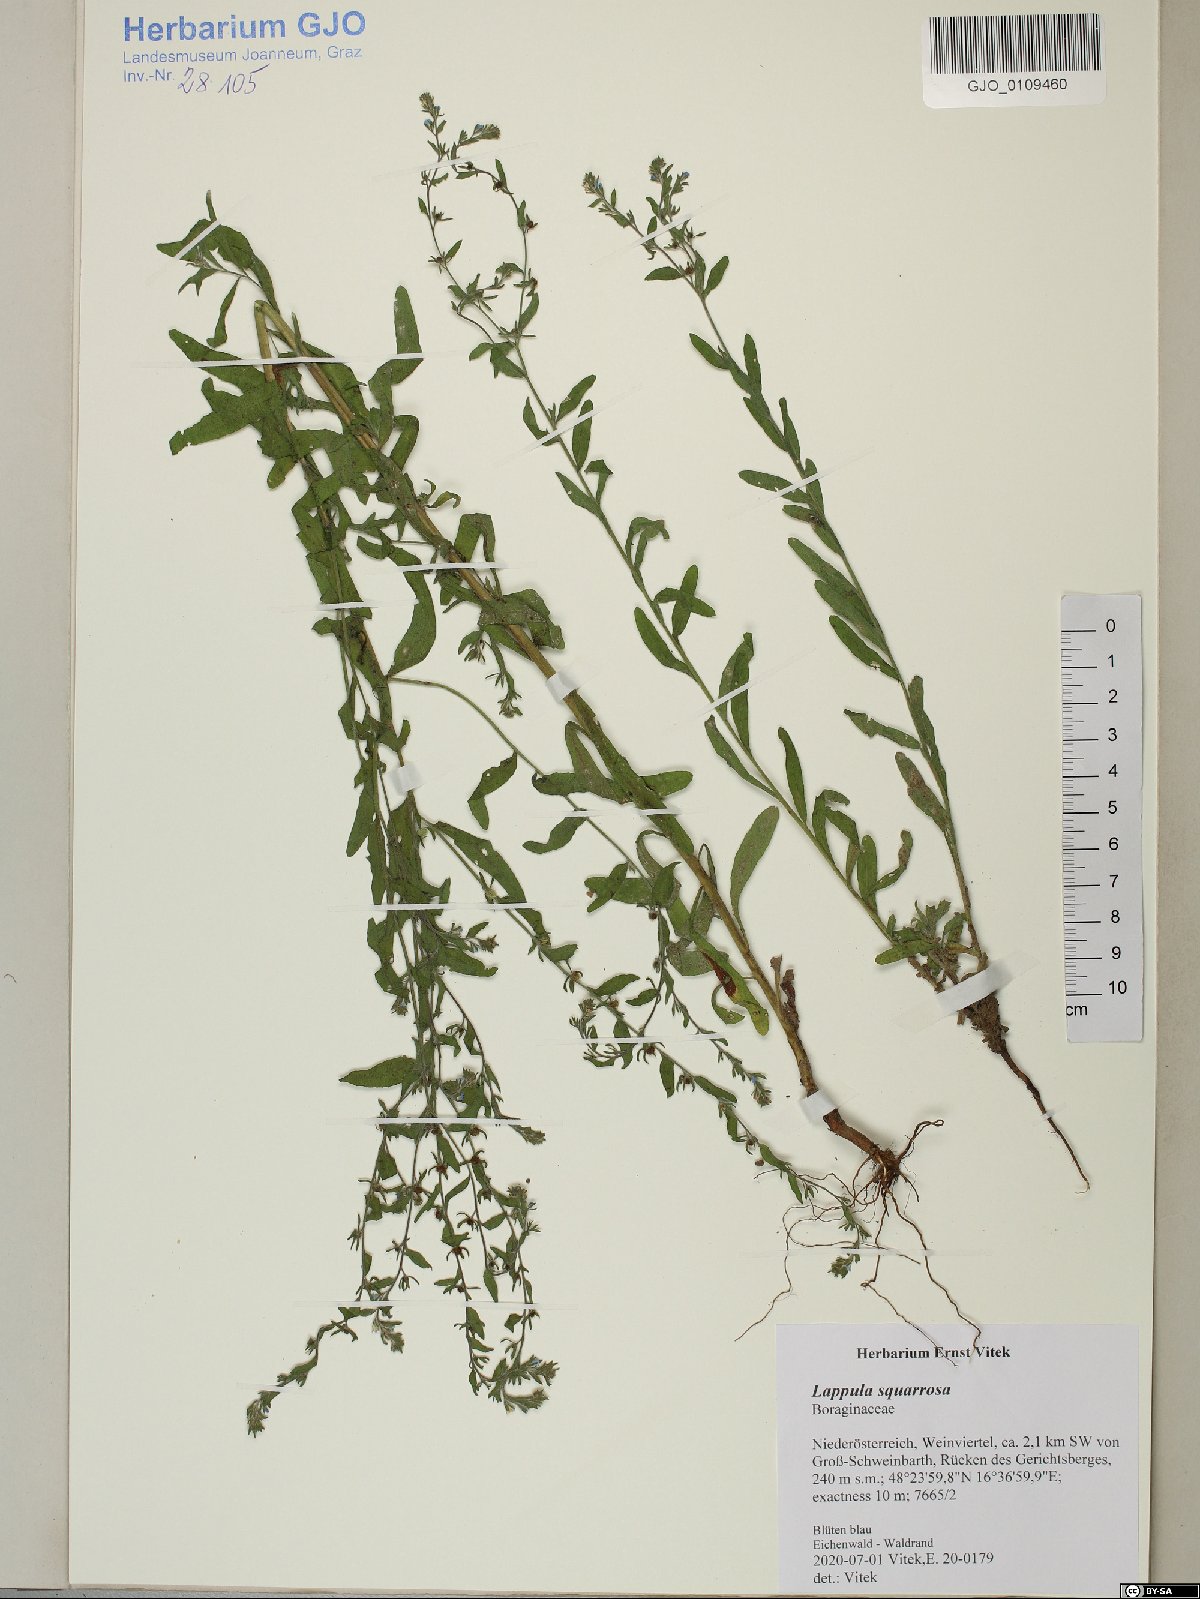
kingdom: Plantae
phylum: Tracheophyta
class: Magnoliopsida
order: Boraginales
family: Boraginaceae
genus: Lappula
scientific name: Lappula squarrosa
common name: European stickseed
